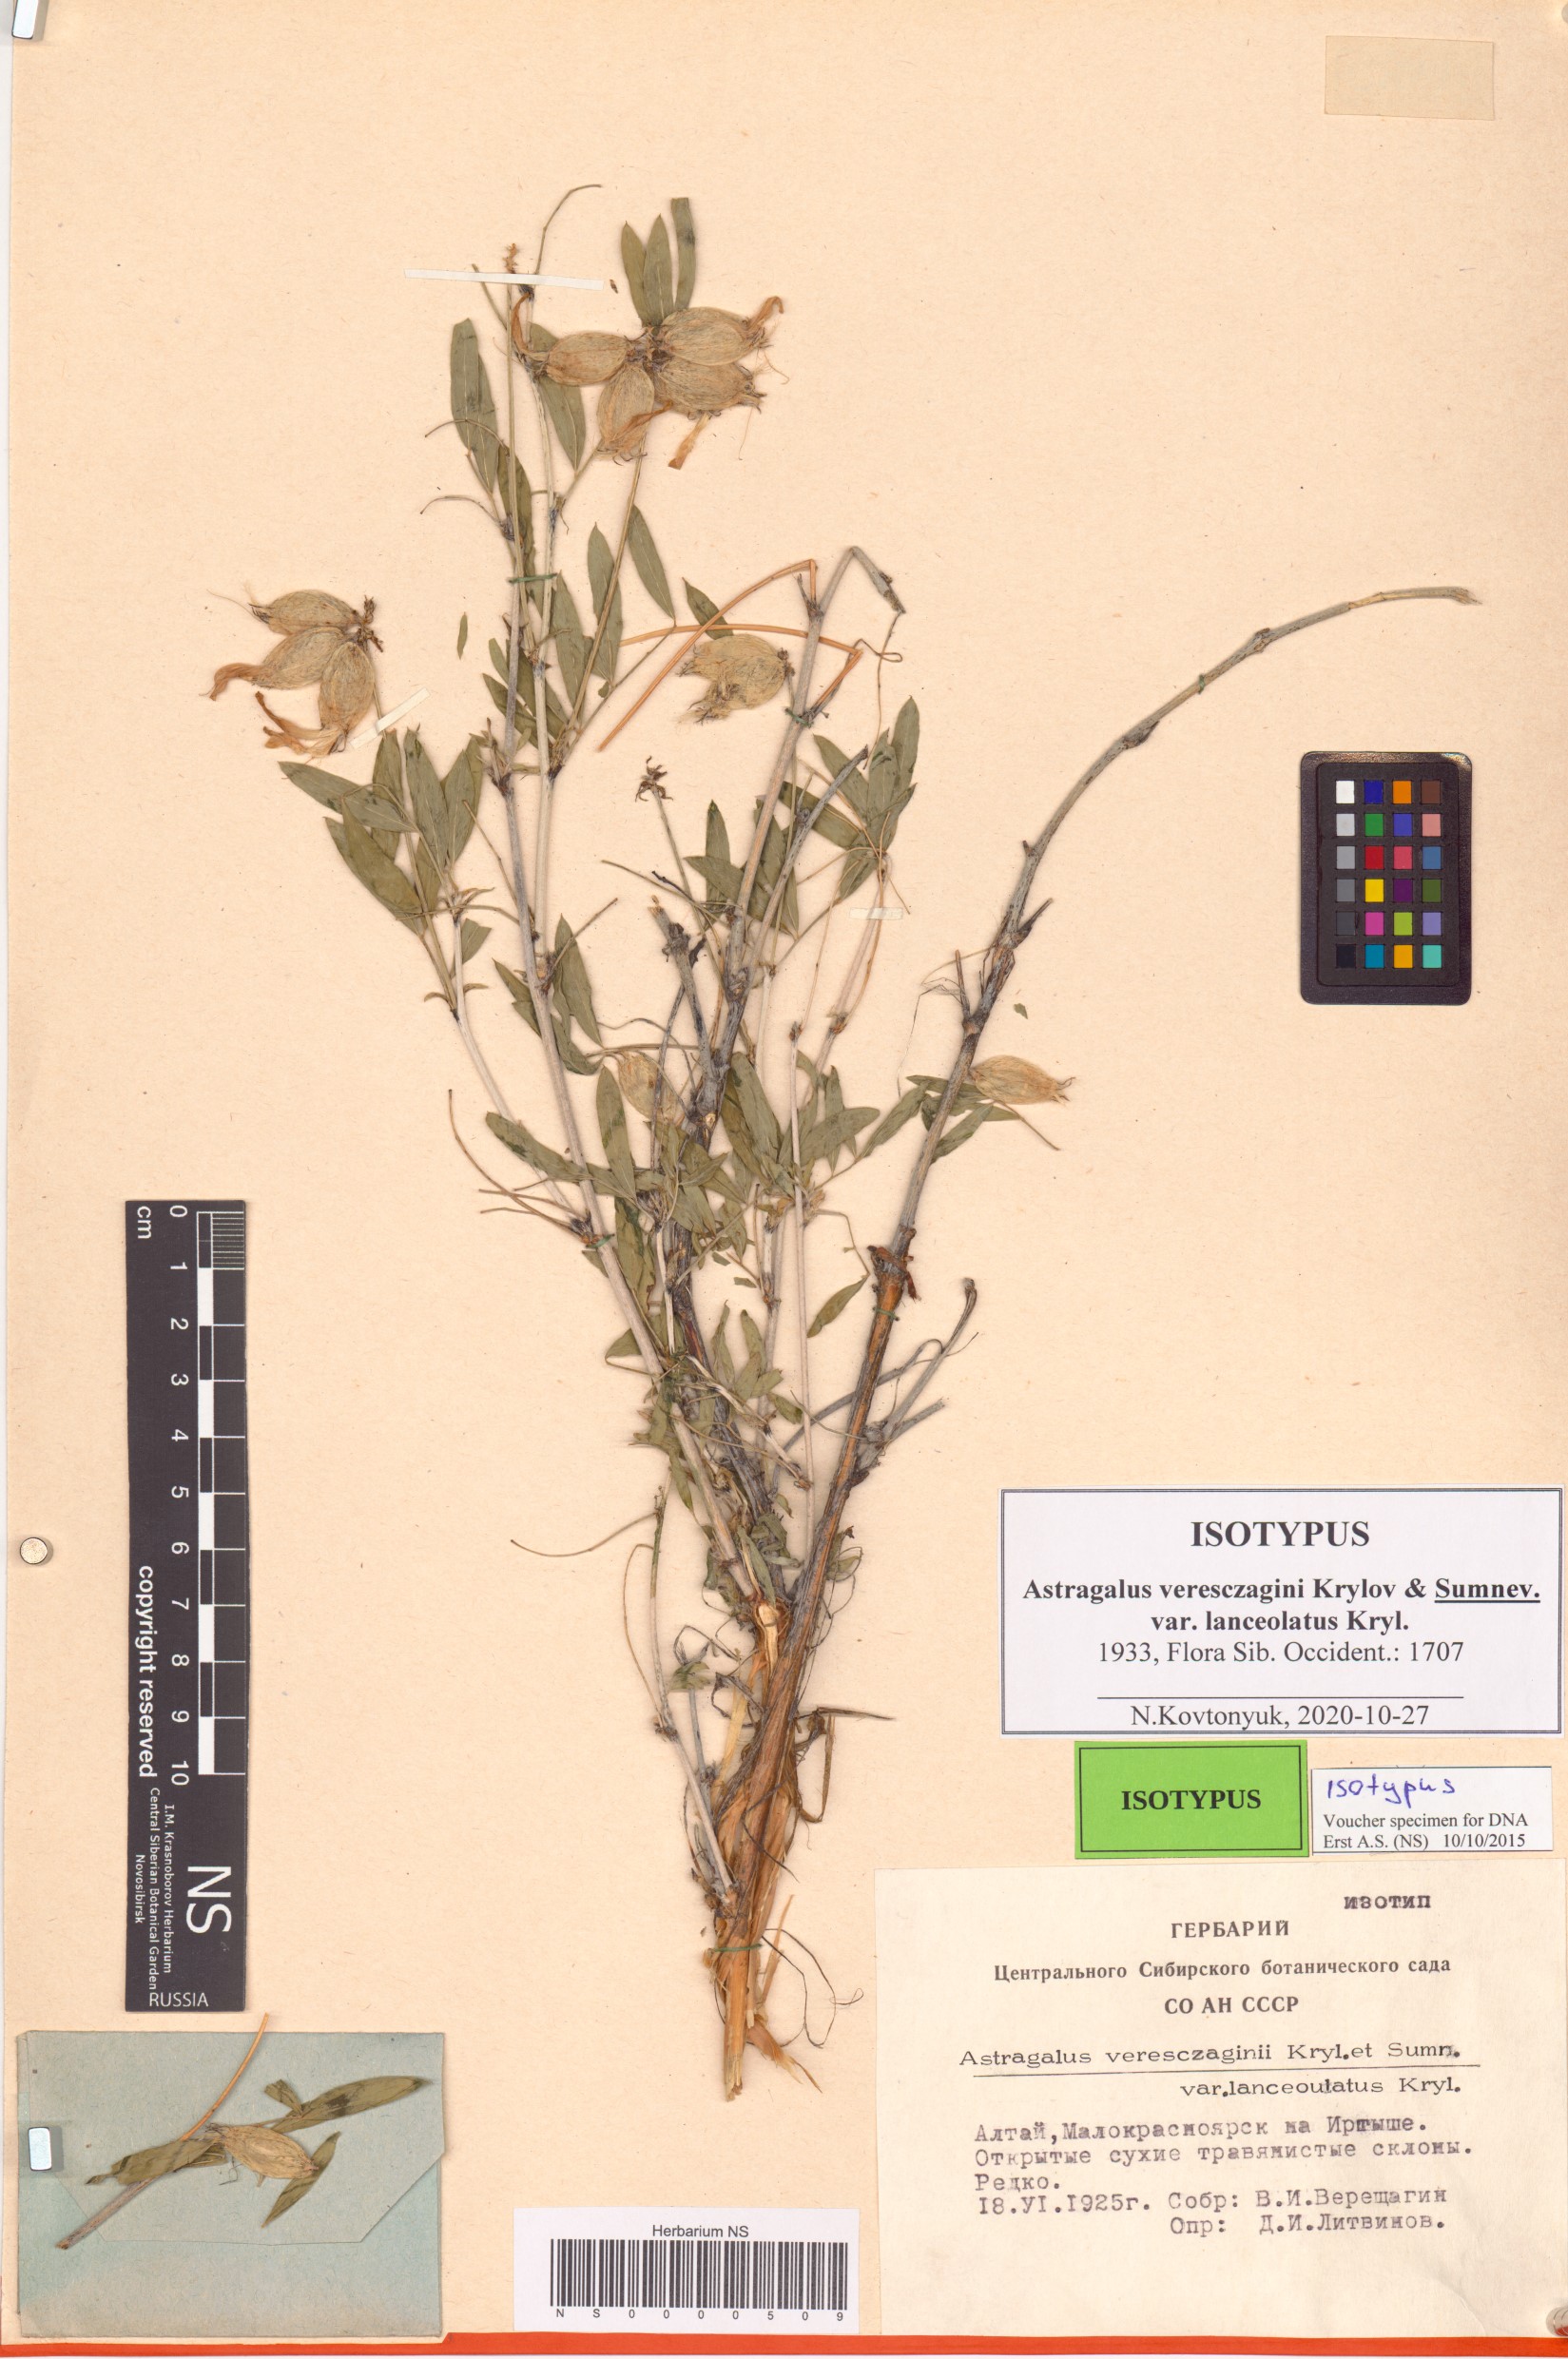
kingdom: Plantae
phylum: Tracheophyta
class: Magnoliopsida
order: Fabales
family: Fabaceae
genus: Astragalus
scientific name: Astragalus veresczaginii
